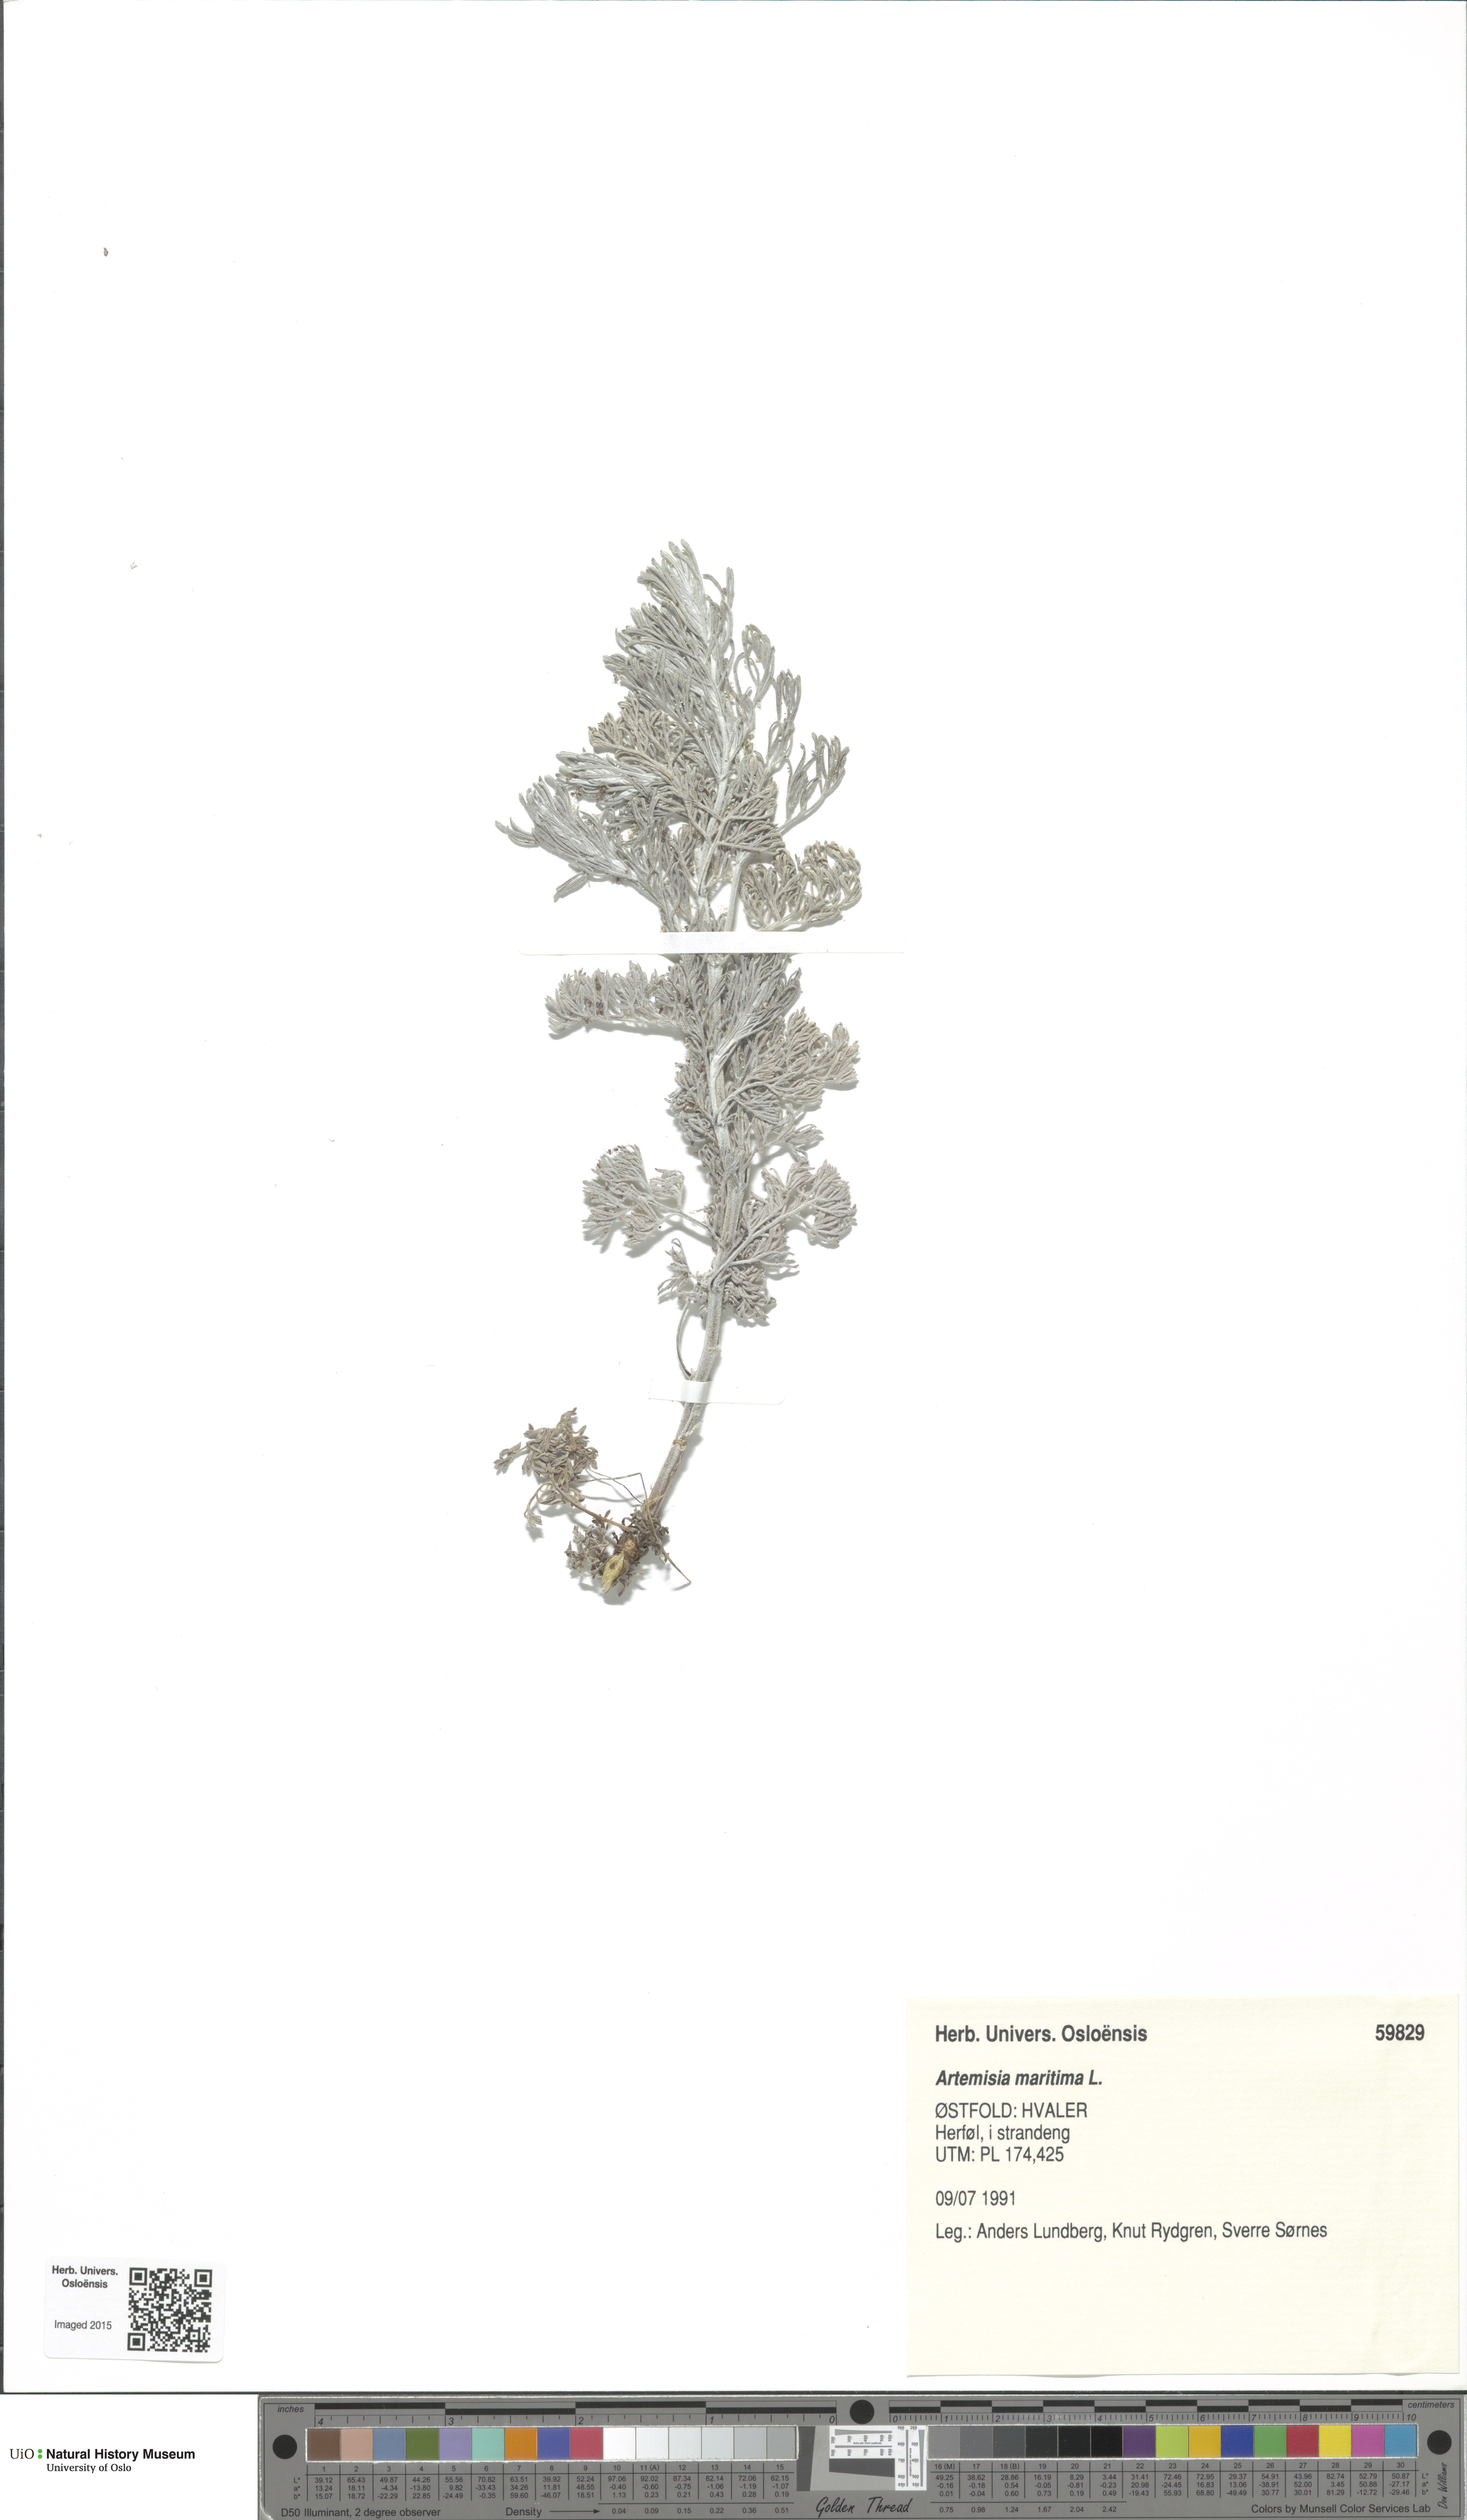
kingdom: Plantae
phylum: Tracheophyta
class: Magnoliopsida
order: Asterales
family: Asteraceae
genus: Artemisia
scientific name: Artemisia maritima
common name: Wormseed
